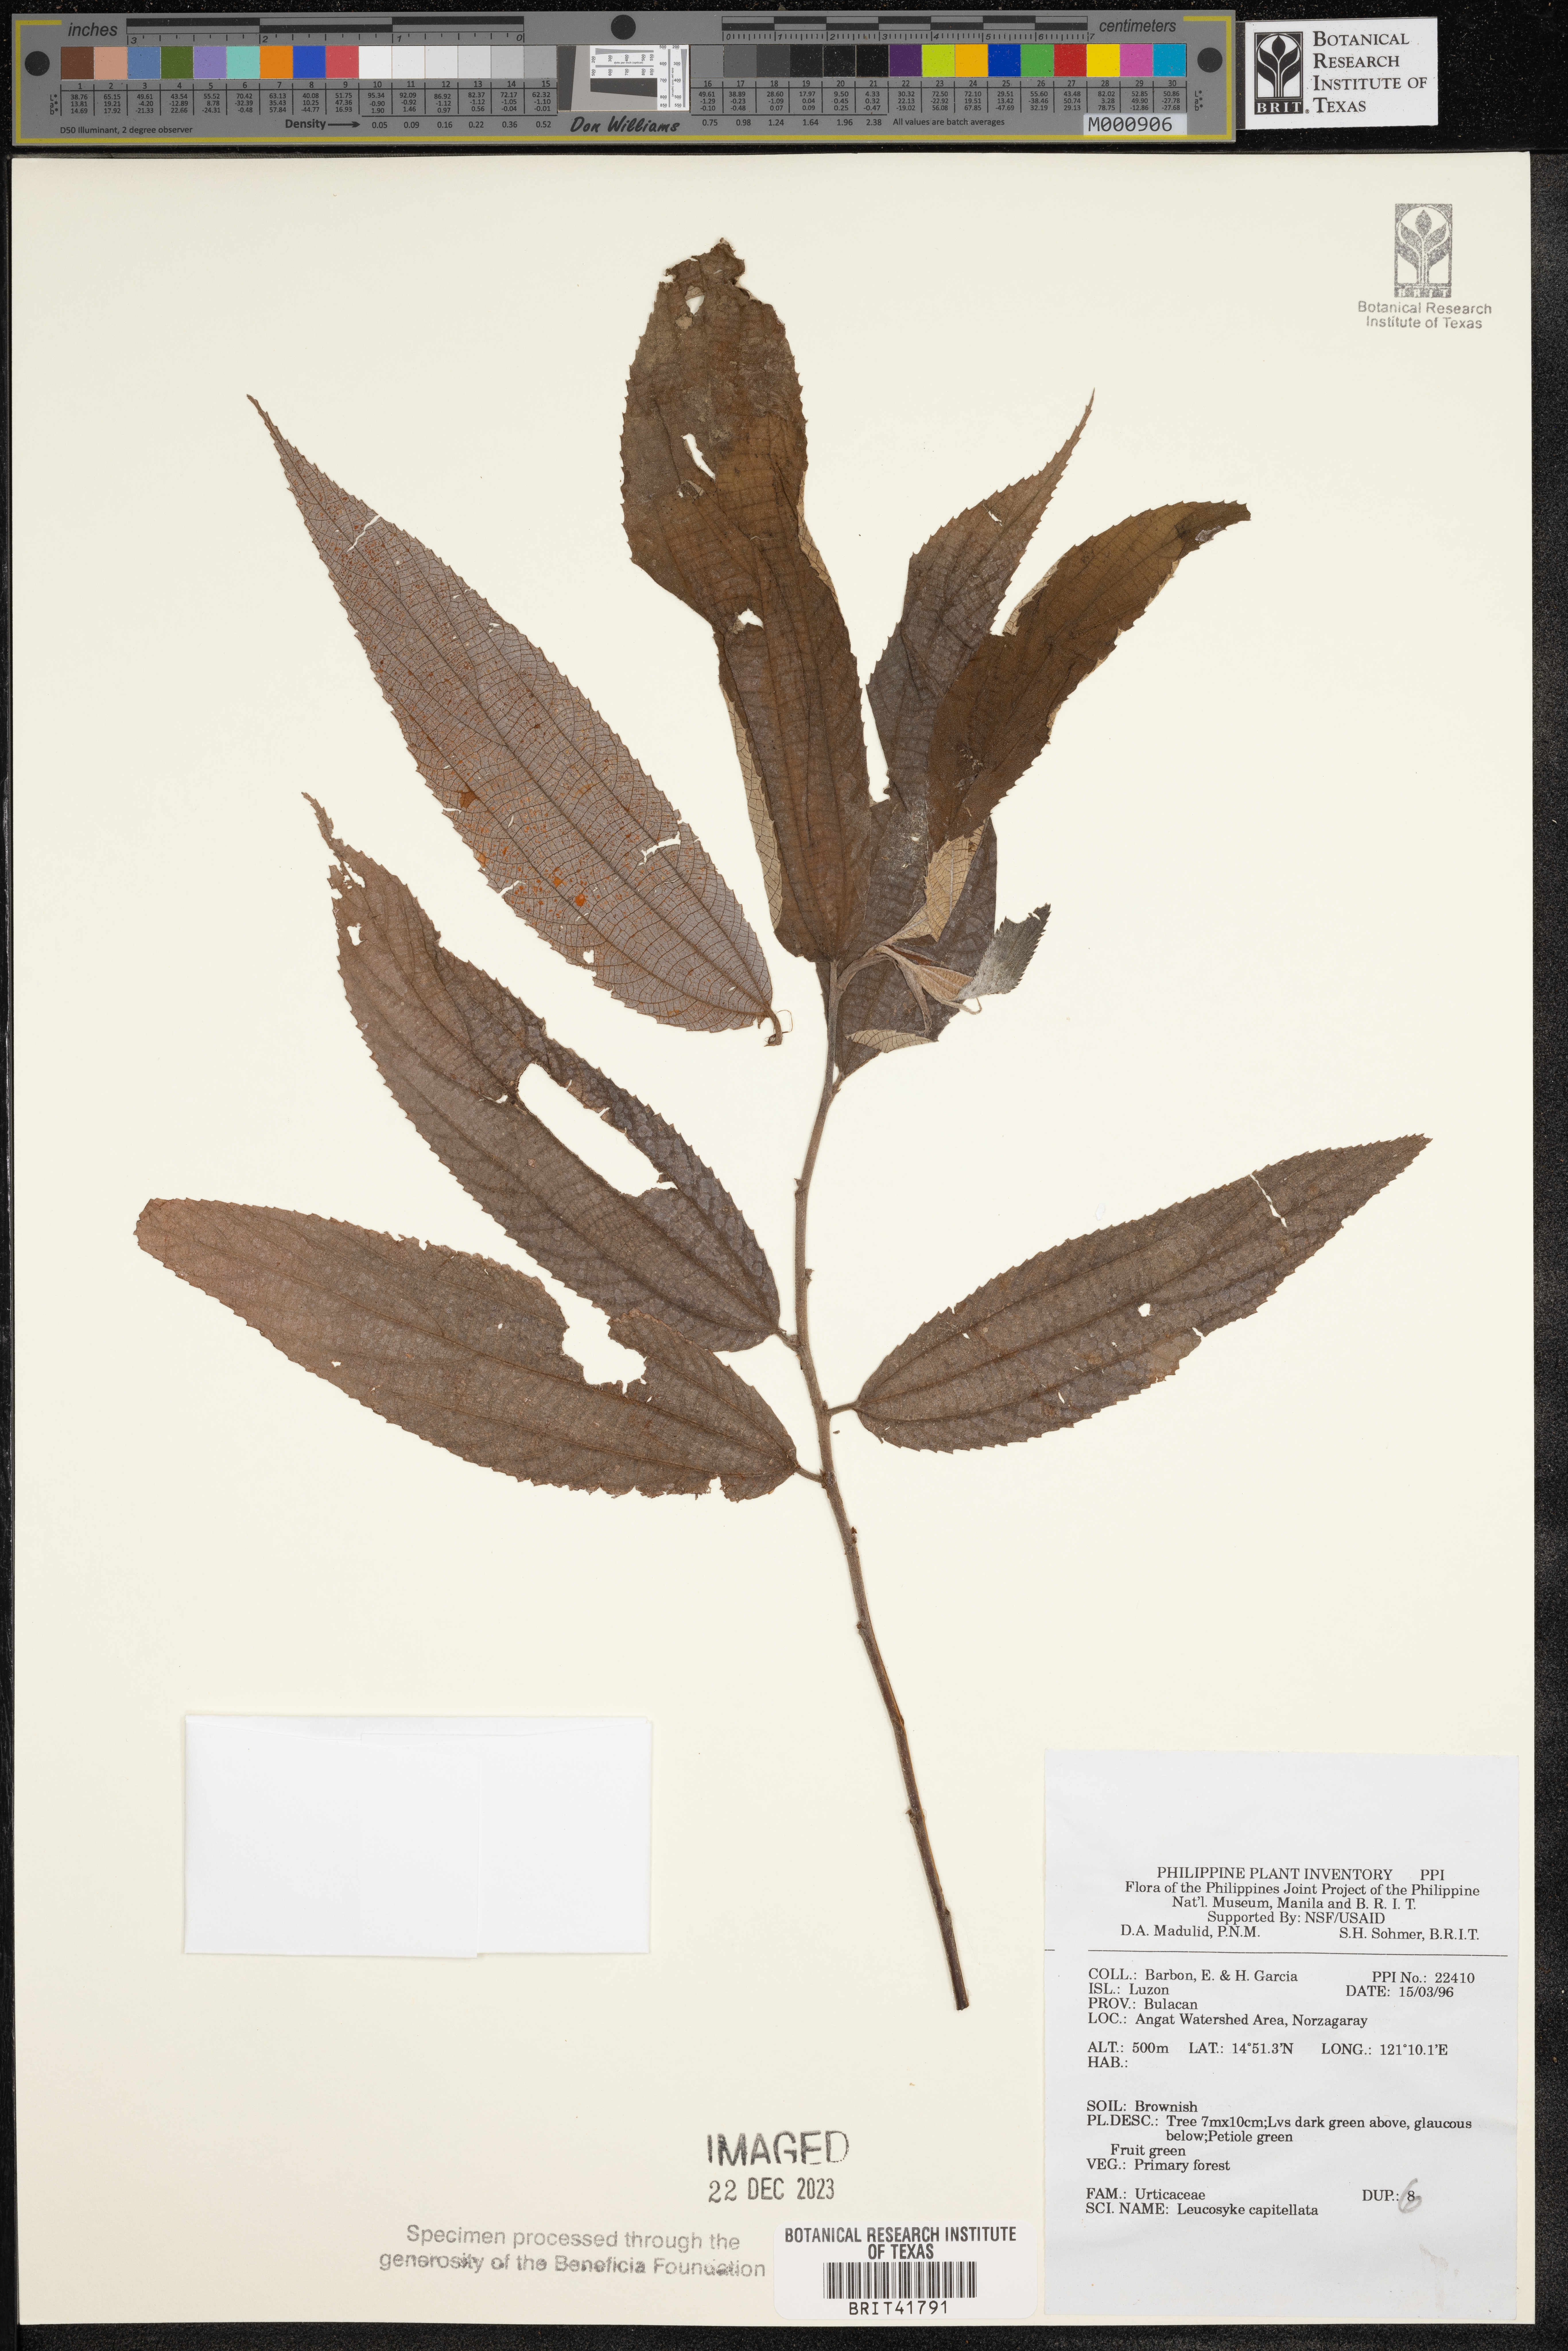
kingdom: Plantae
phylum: Tracheophyta
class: Magnoliopsida
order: Rosales
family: Urticaceae
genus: Leucosyke
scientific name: Leucosyke capitellata
